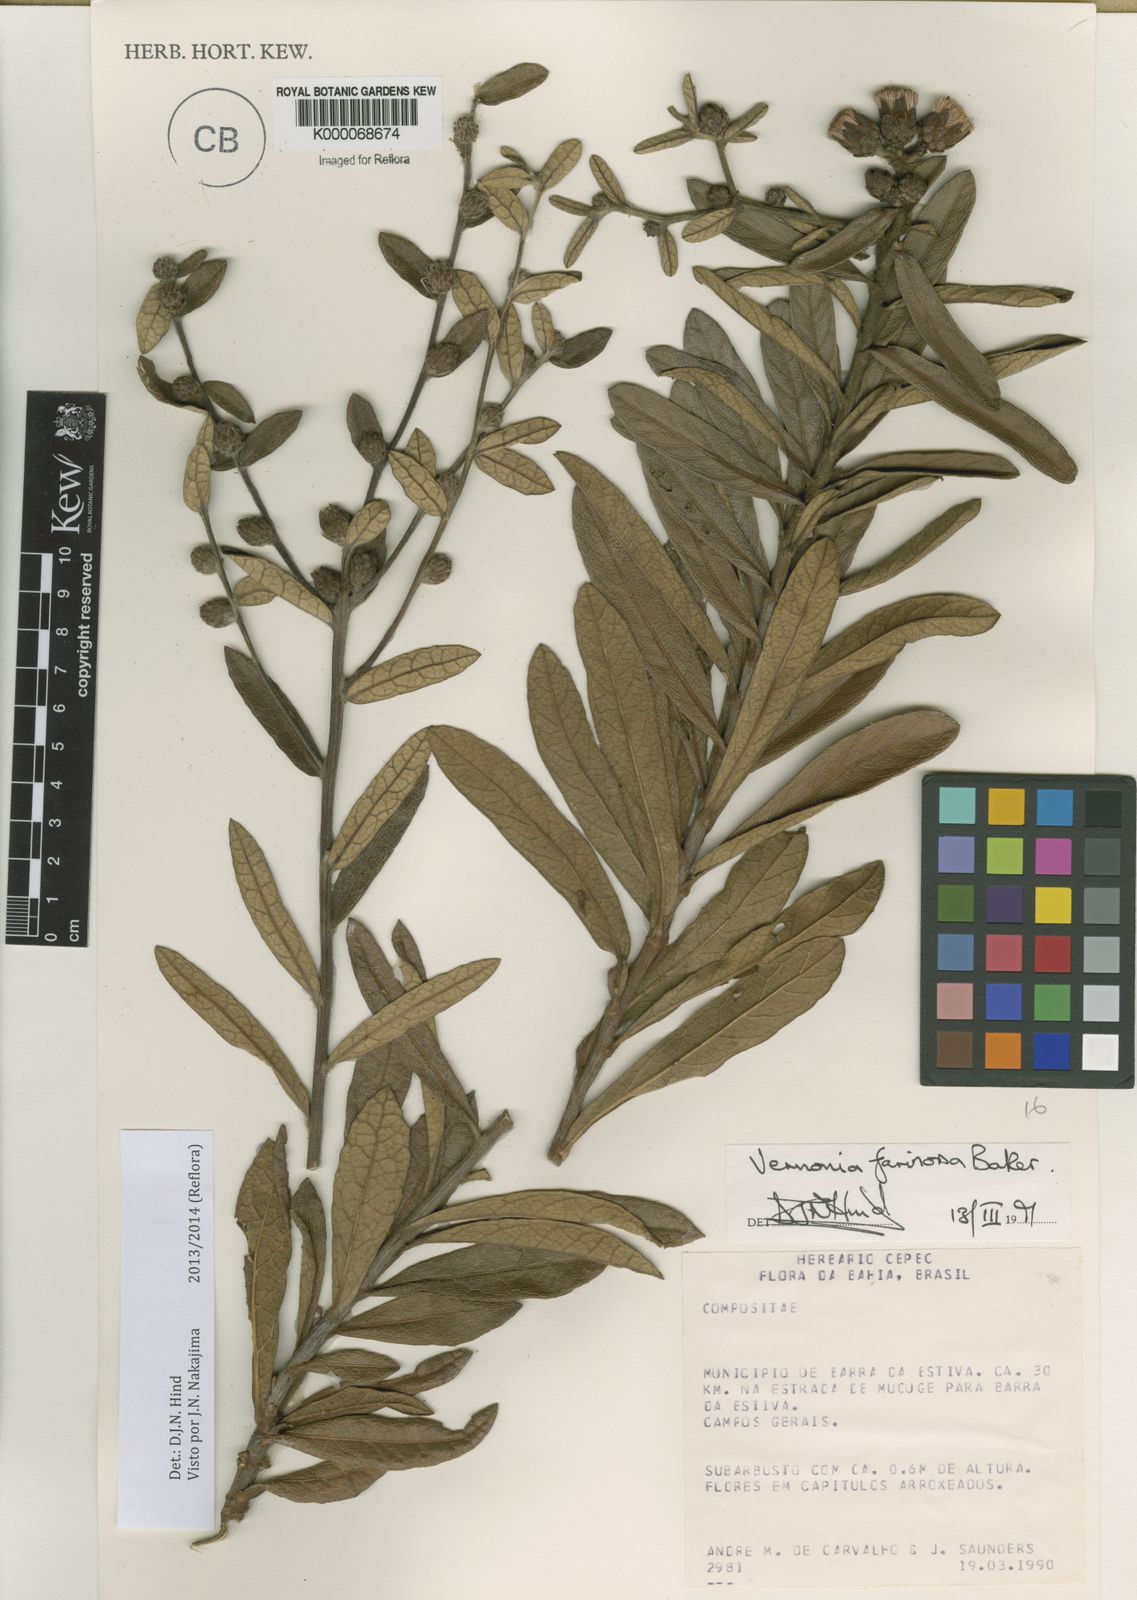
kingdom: Plantae
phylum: Tracheophyta
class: Magnoliopsida
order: Asterales
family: Asteraceae
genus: Lessingianthus
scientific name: Lessingianthus farinosus
